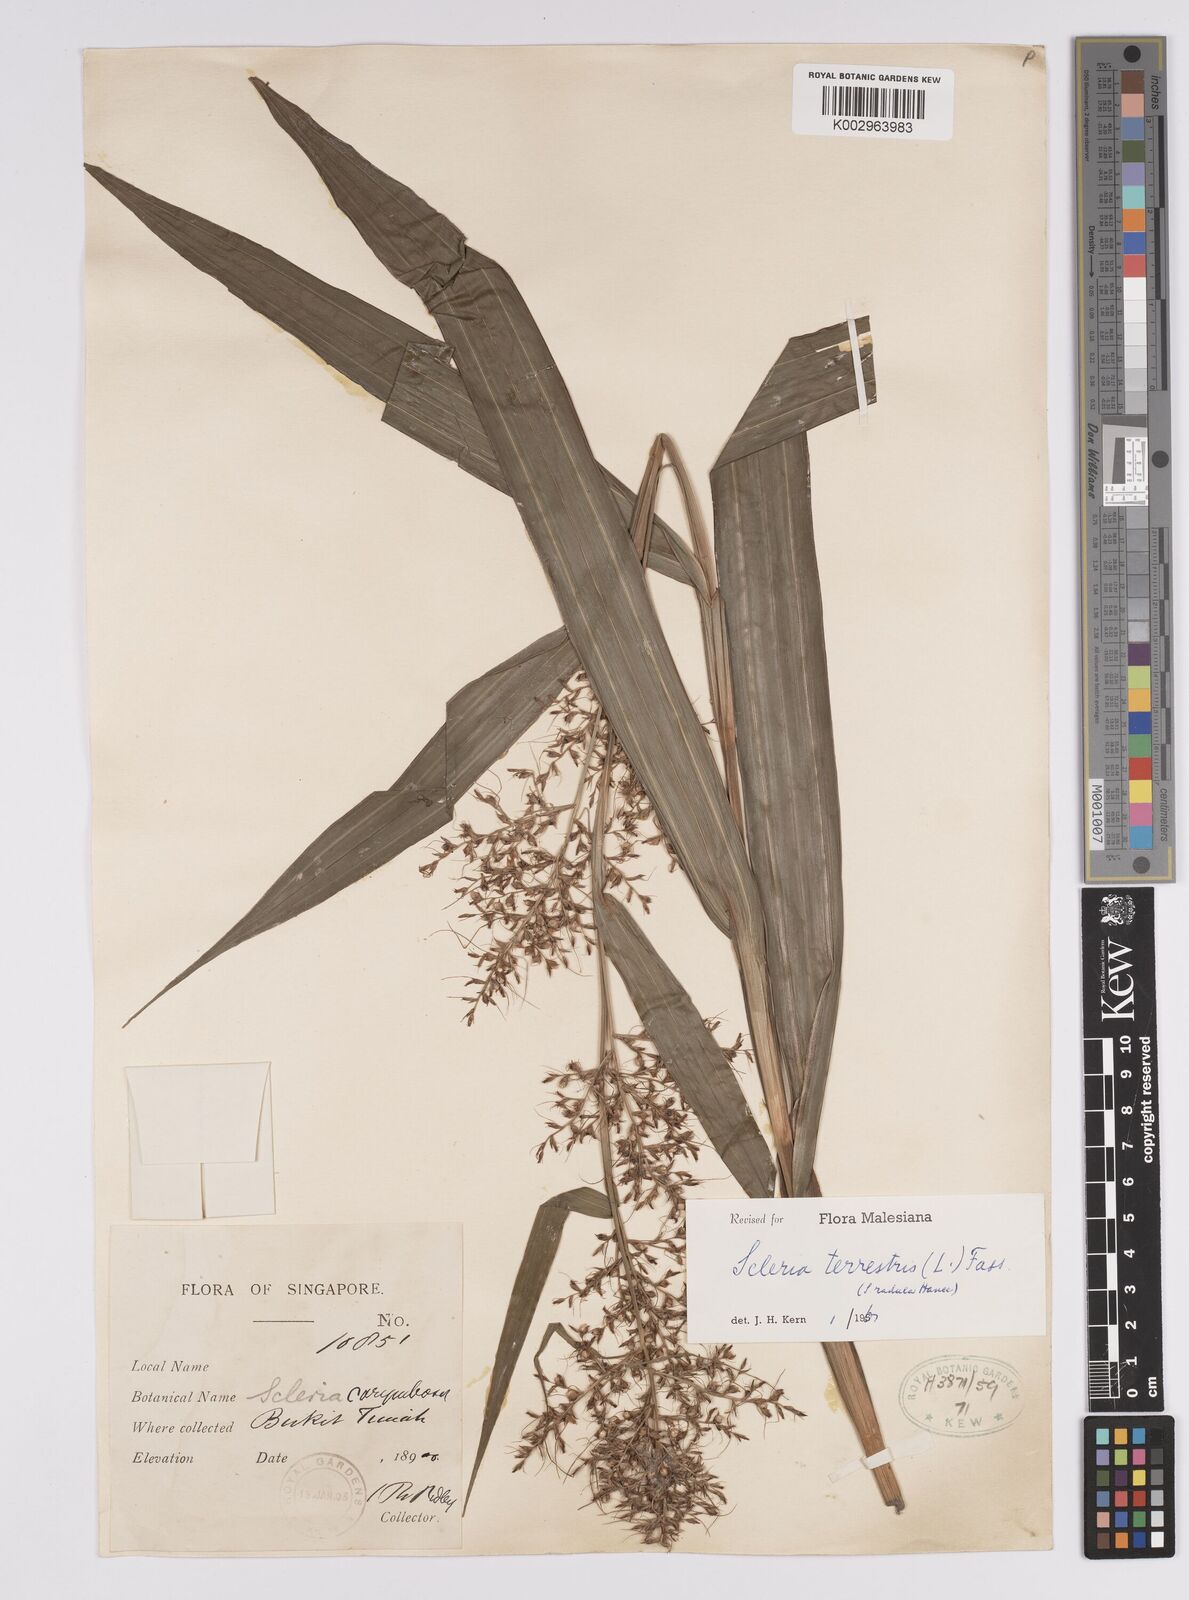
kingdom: Plantae
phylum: Tracheophyta
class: Liliopsida
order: Poales
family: Cyperaceae
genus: Scleria
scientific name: Scleria terrestris
